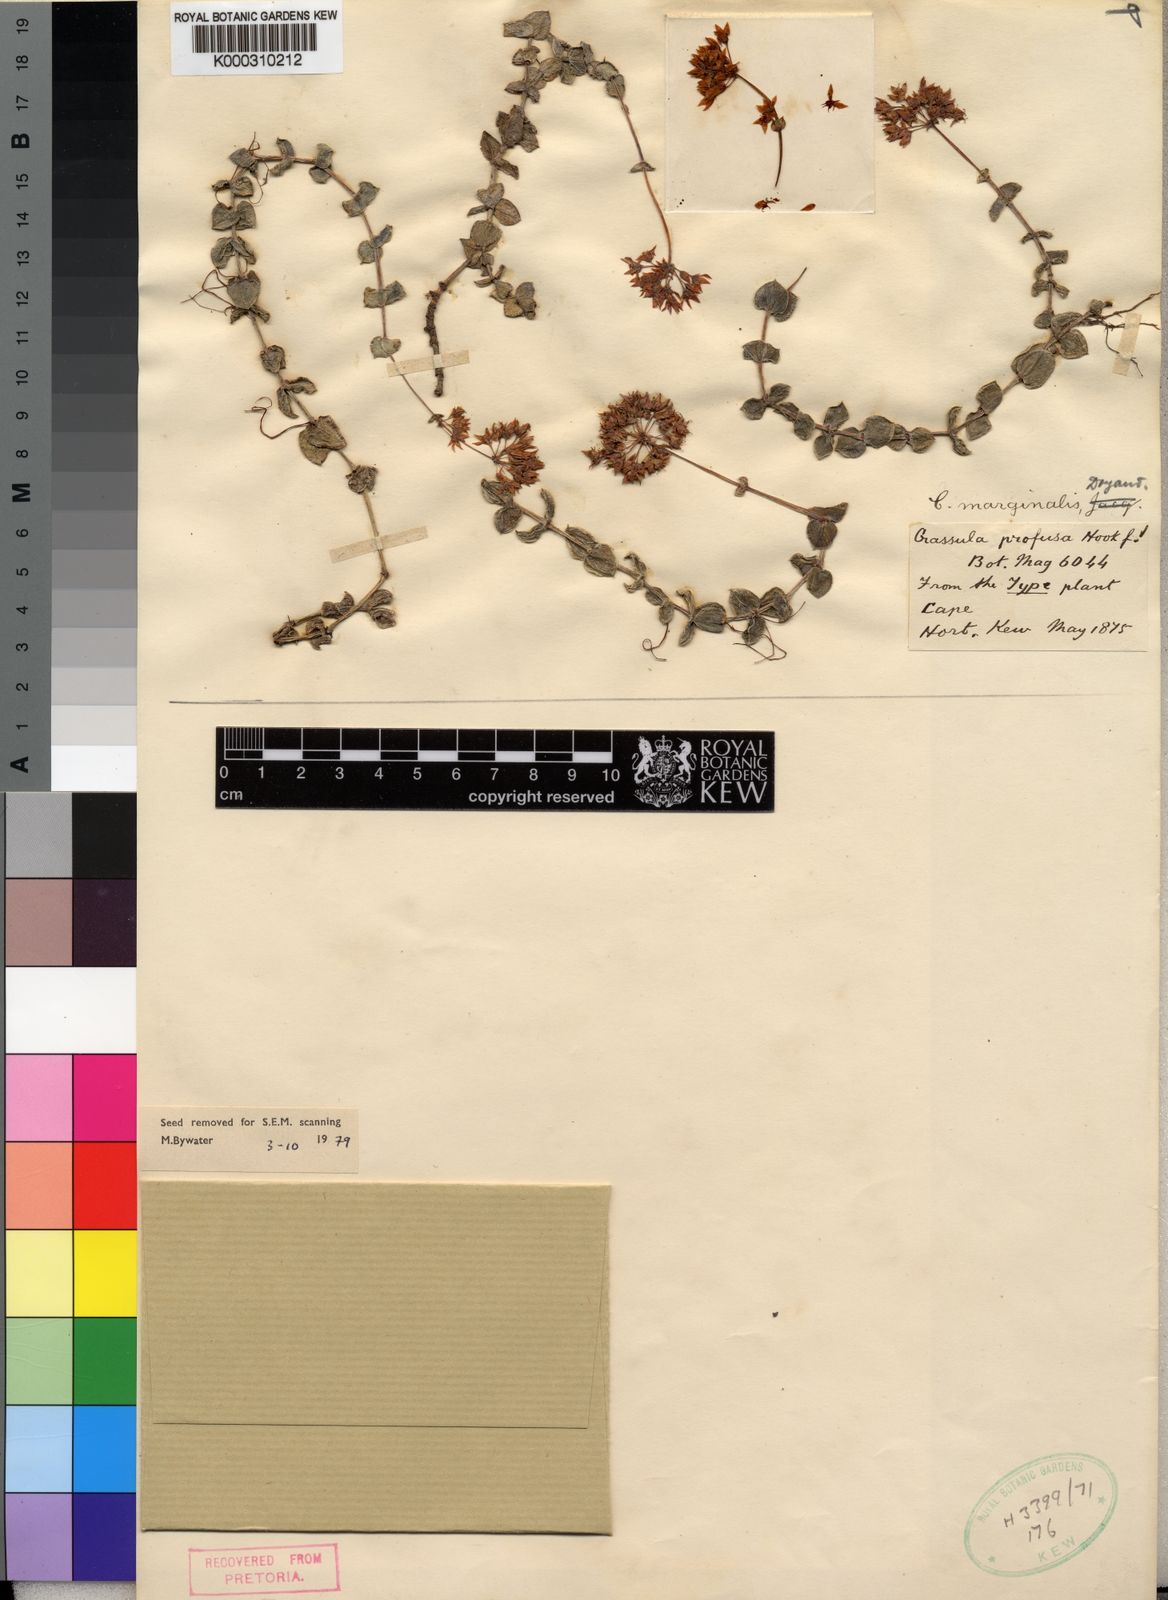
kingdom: Plantae
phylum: Tracheophyta
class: Magnoliopsida
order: Saxifragales
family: Crassulaceae
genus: Crassula
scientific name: Crassula pellucida
